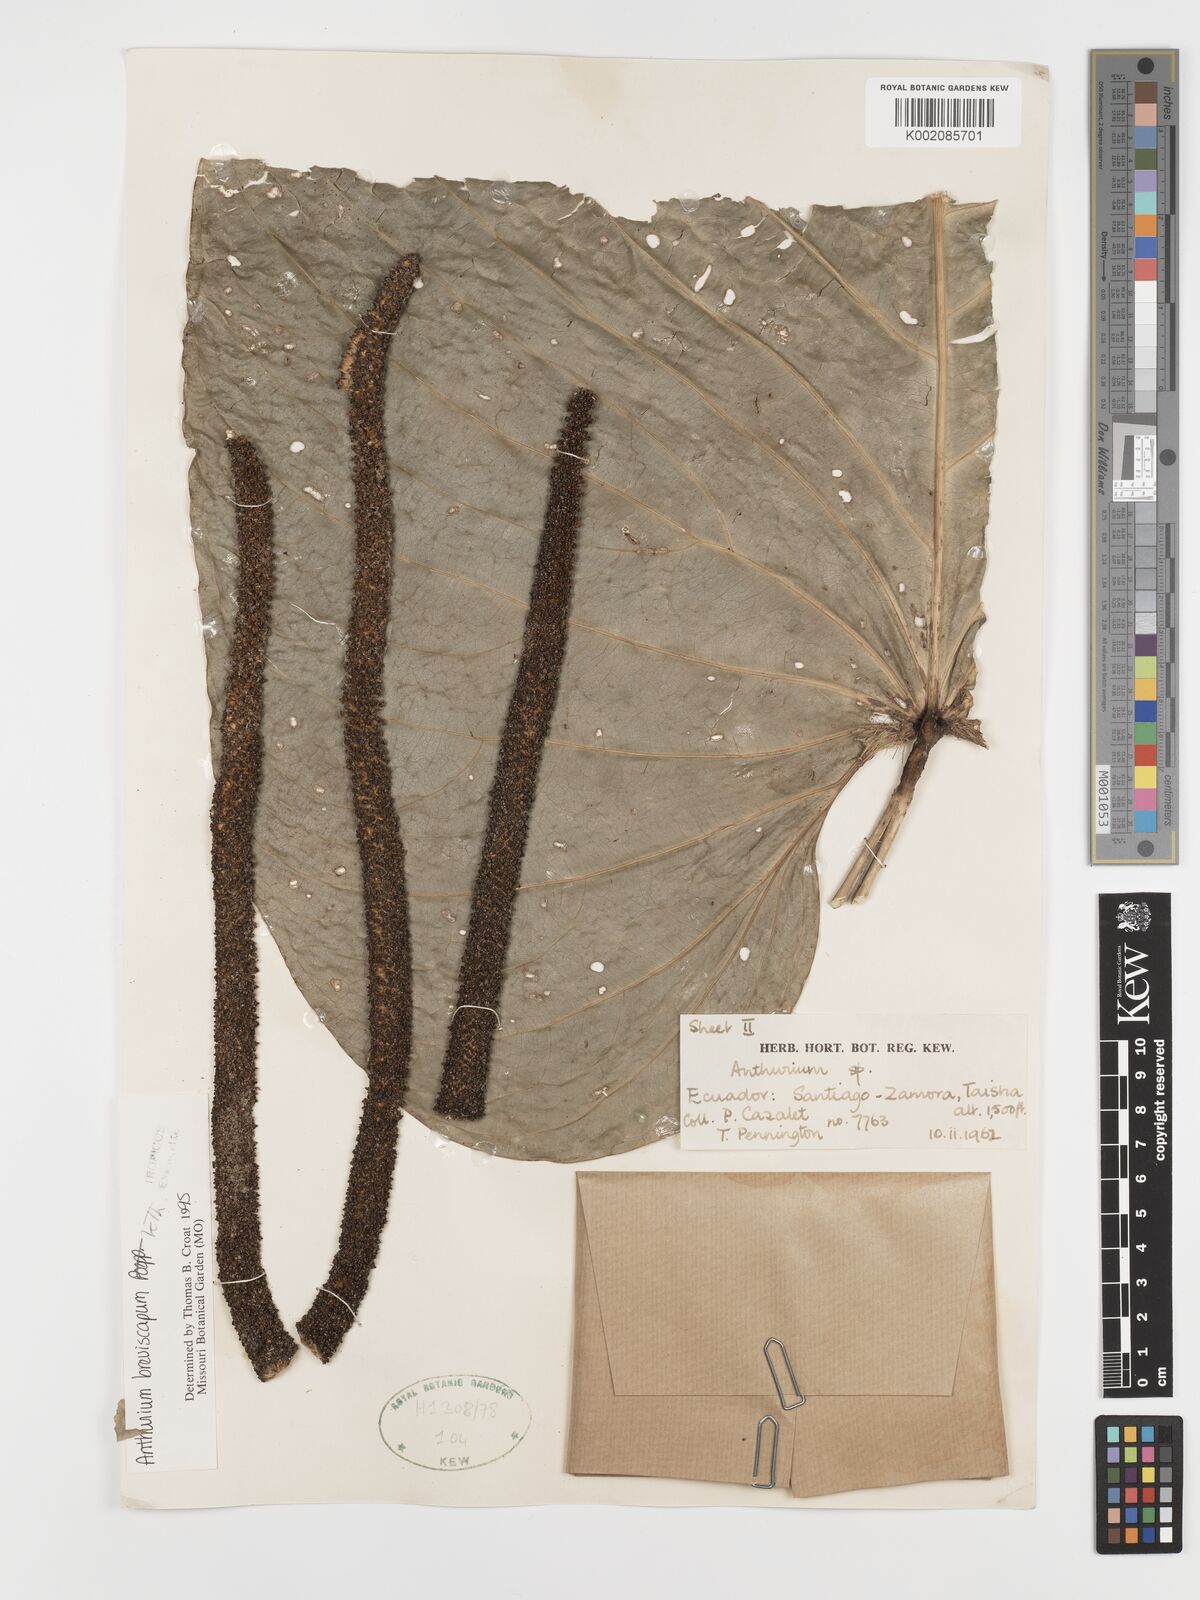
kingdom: Plantae
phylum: Tracheophyta
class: Liliopsida
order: Alismatales
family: Araceae
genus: Anthurium
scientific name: Anthurium breviscapum
